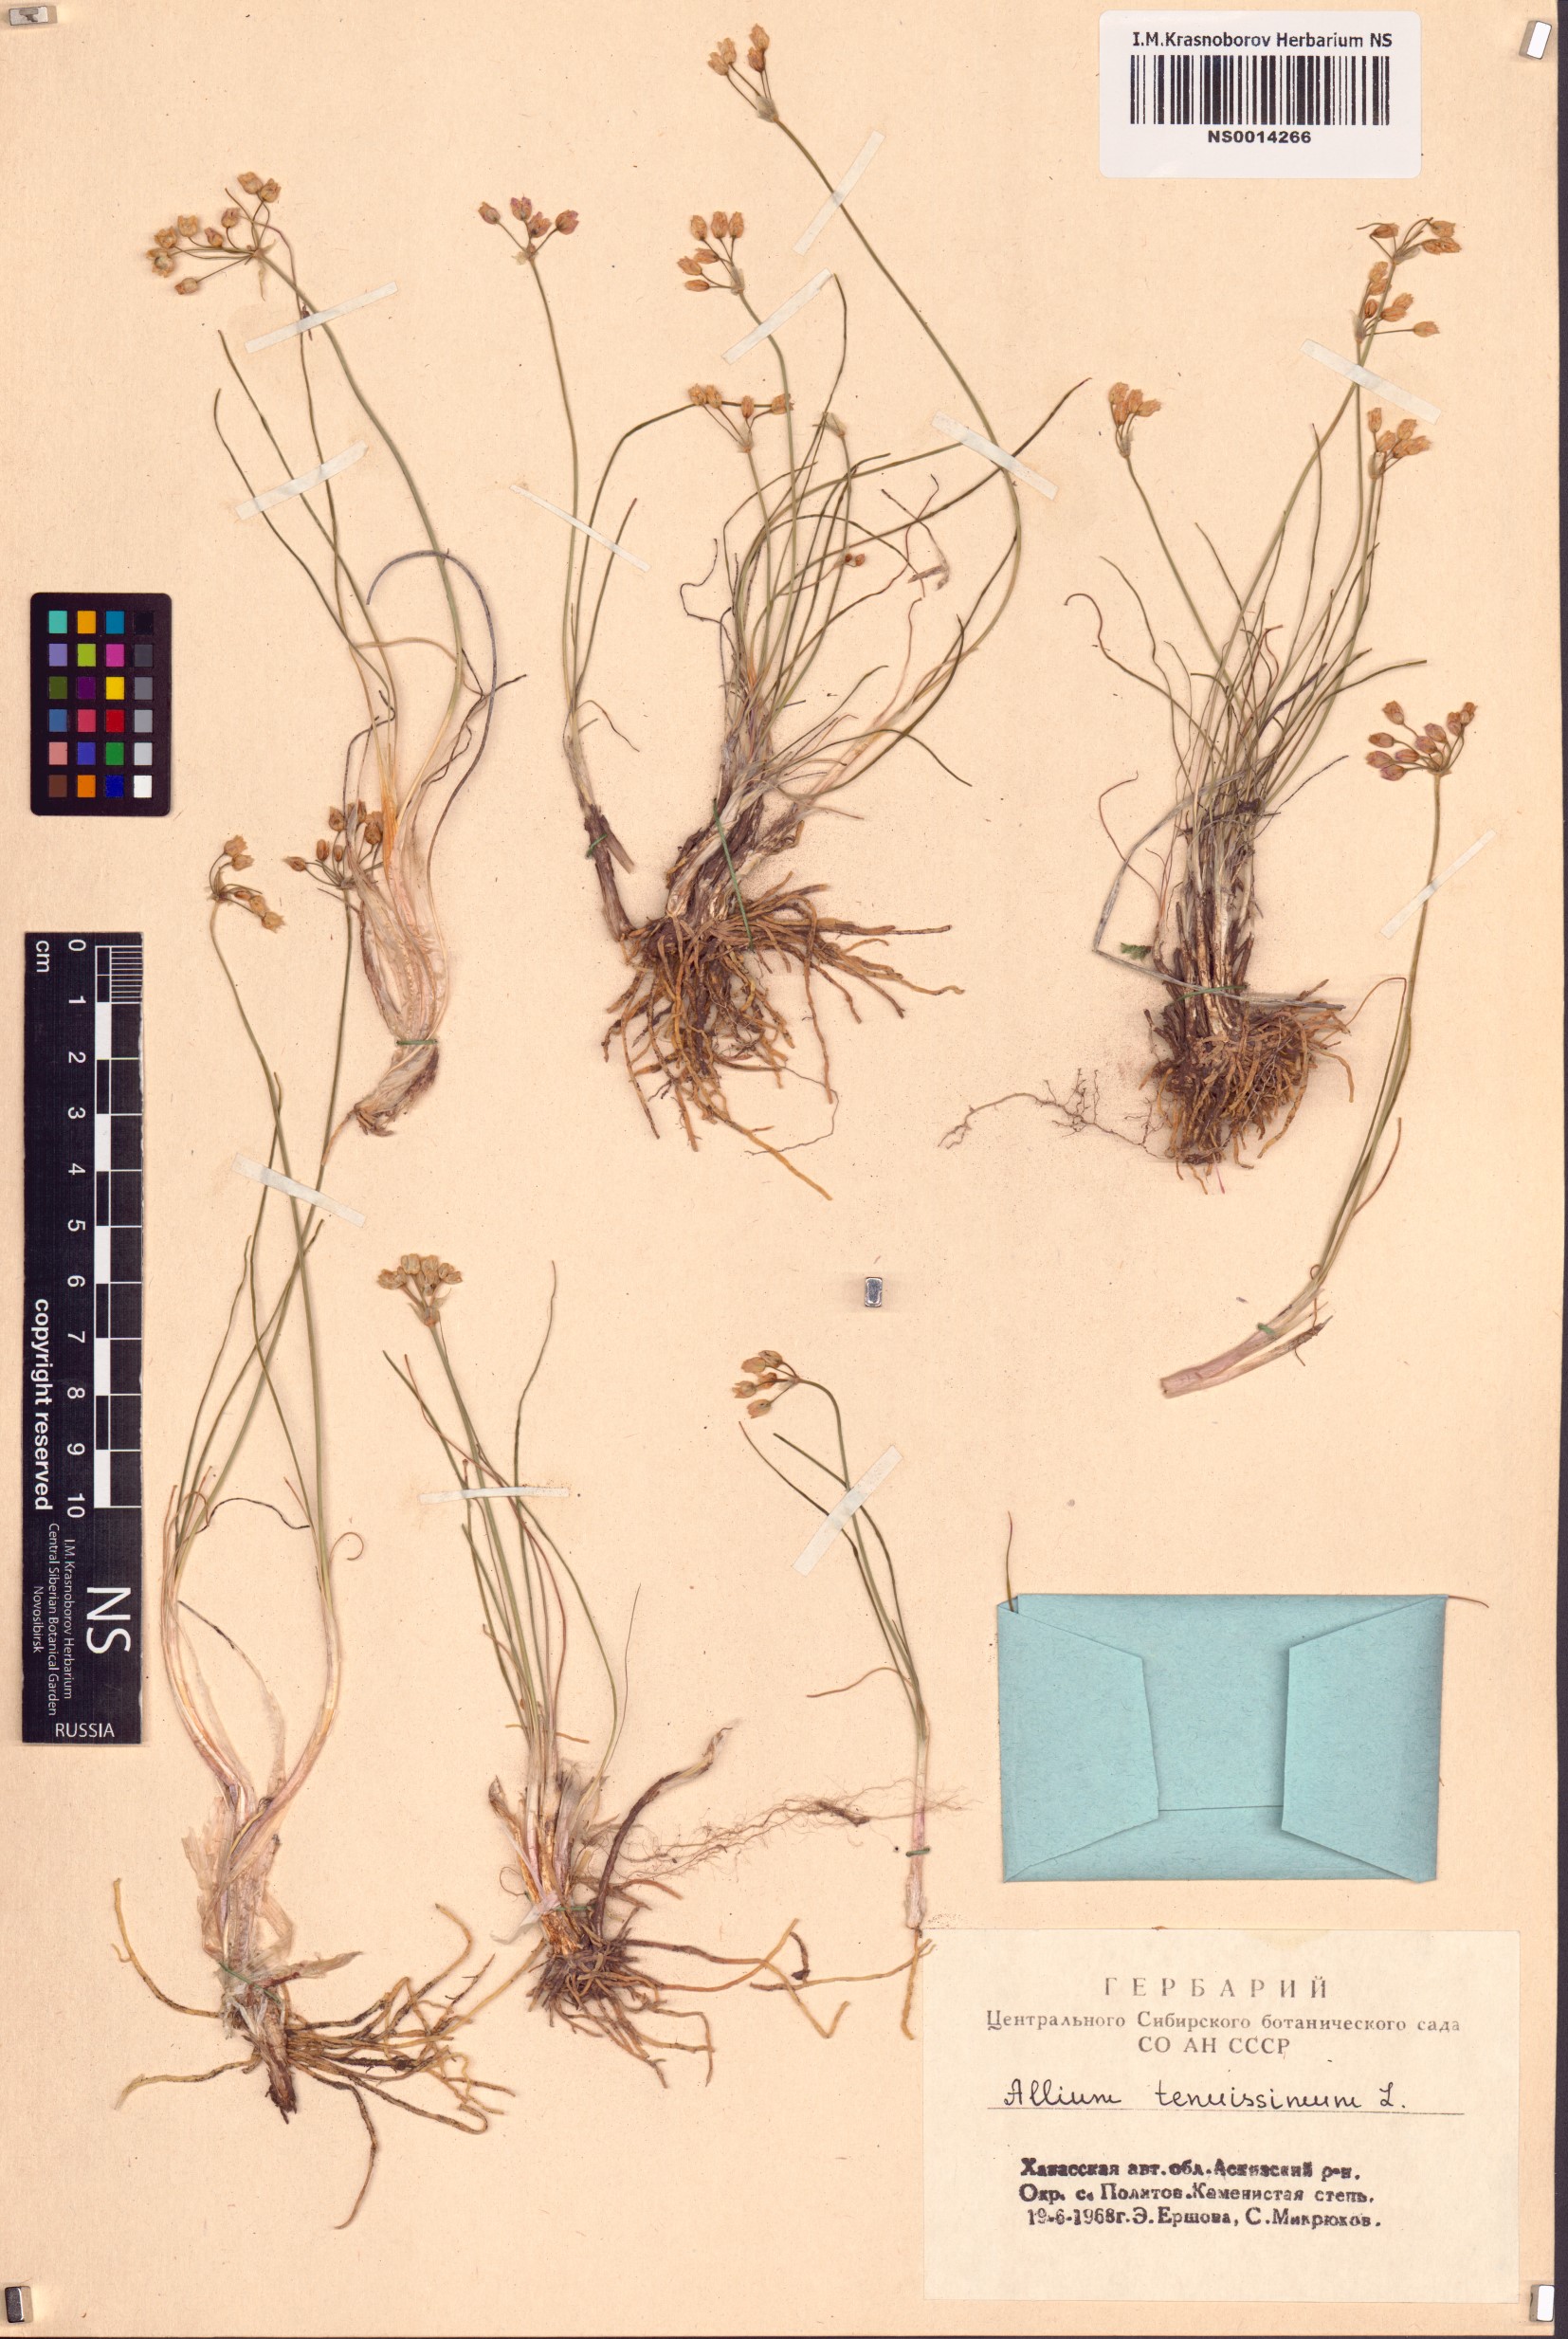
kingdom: Plantae
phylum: Tracheophyta
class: Liliopsida
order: Asparagales
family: Amaryllidaceae
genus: Allium
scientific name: Allium tenuissimum
